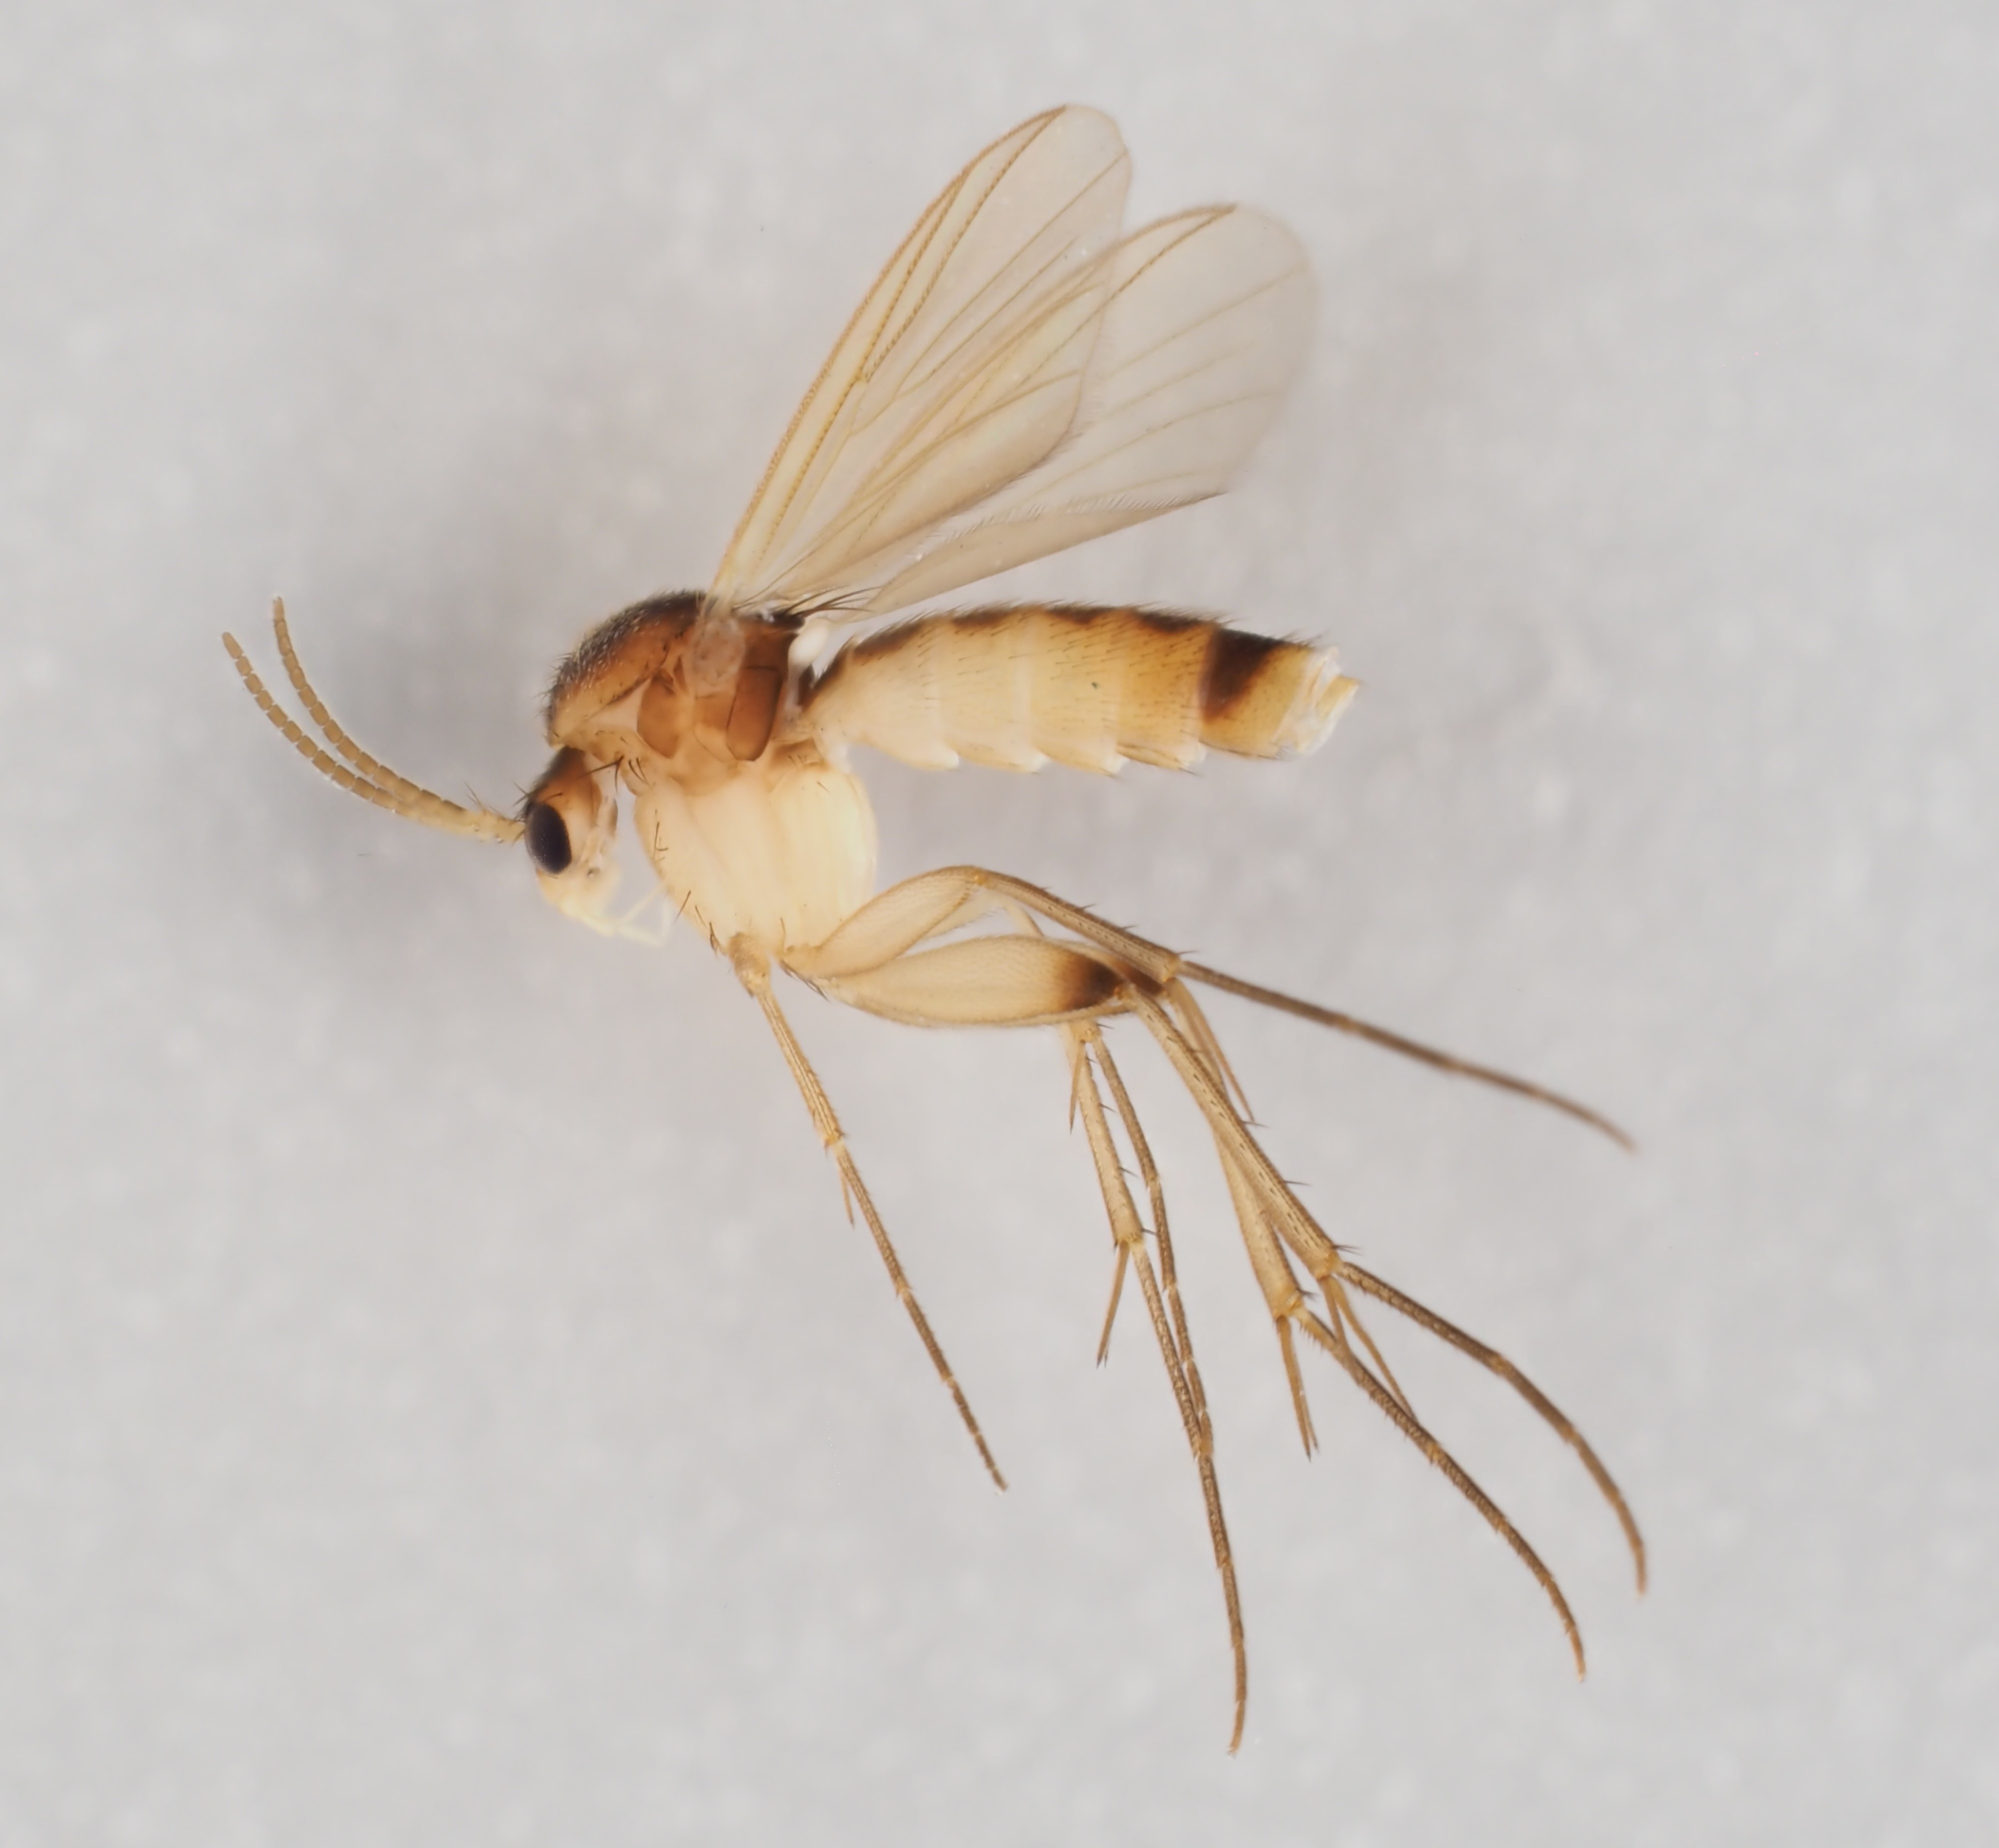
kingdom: Animalia
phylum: Arthropoda
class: Insecta
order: Diptera
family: Mycetophilidae
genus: Brevicornu
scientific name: Brevicornu serenum
